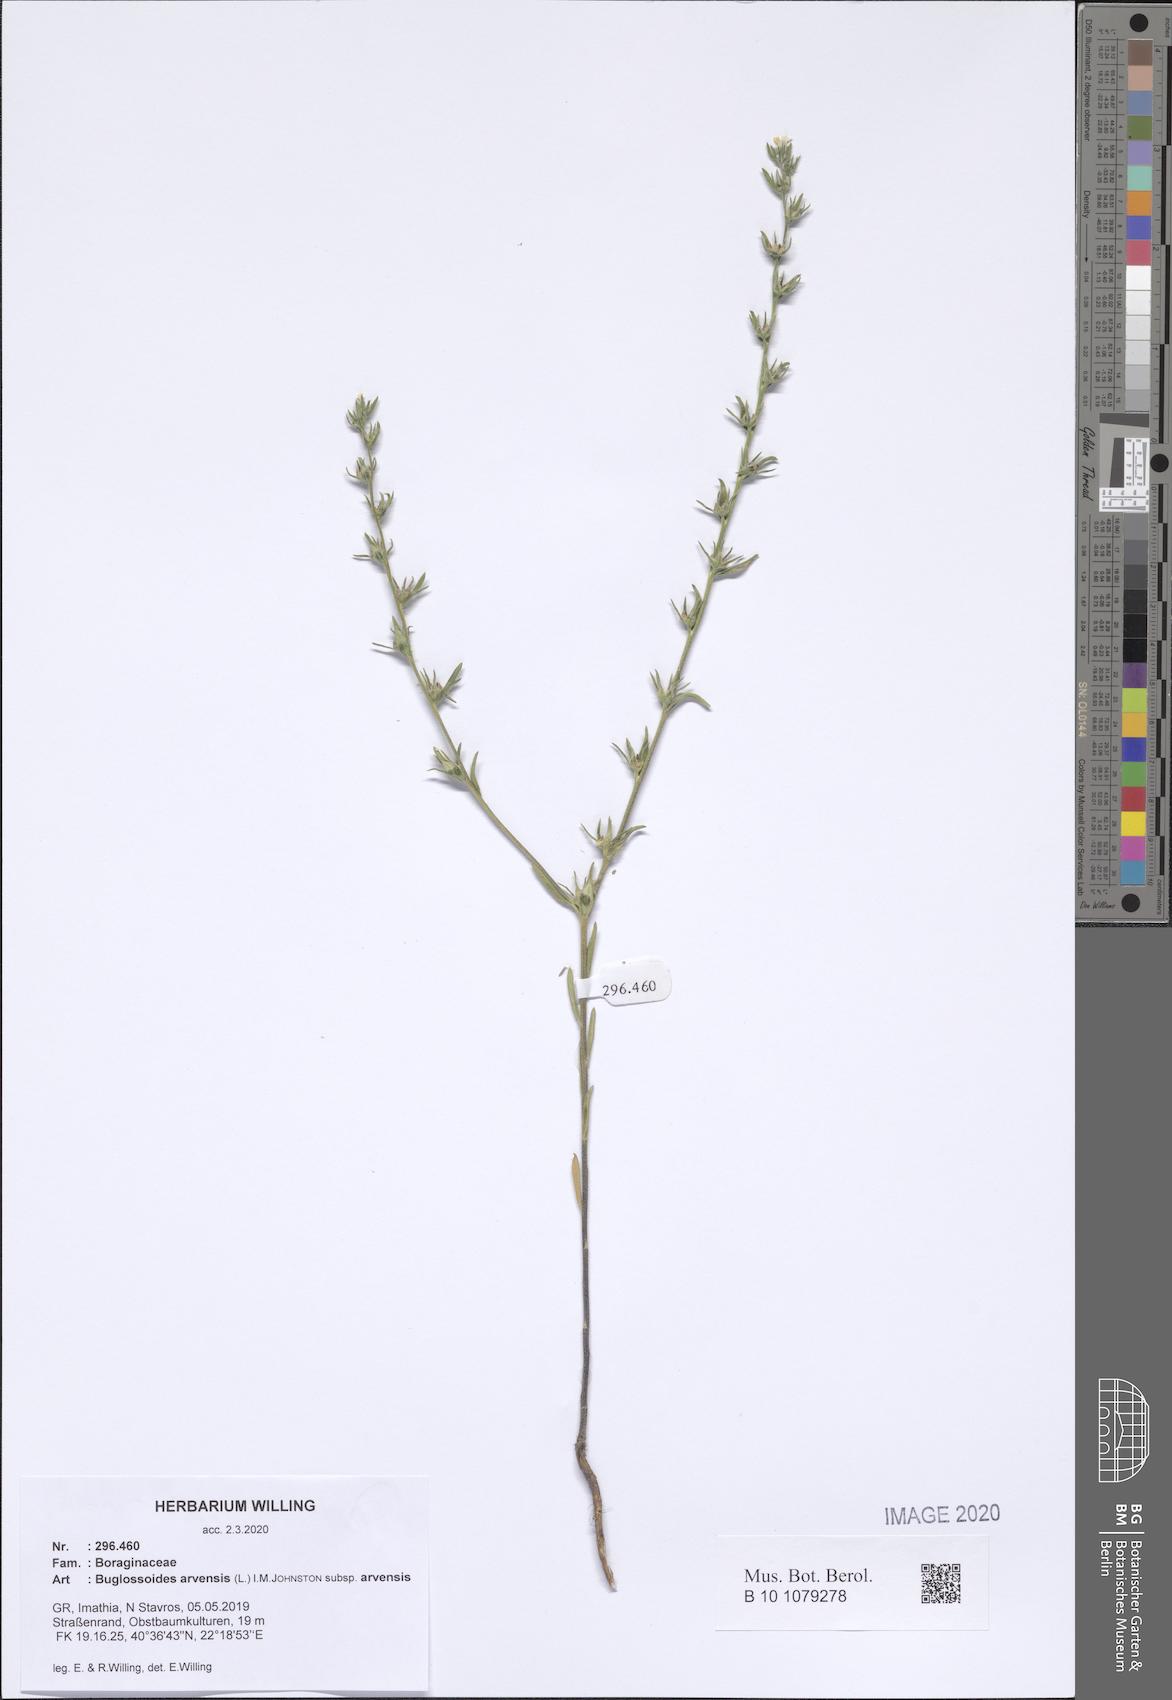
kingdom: Plantae
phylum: Tracheophyta
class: Magnoliopsida
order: Boraginales
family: Boraginaceae
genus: Buglossoides
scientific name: Buglossoides arvensis
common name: Corn gromwell
